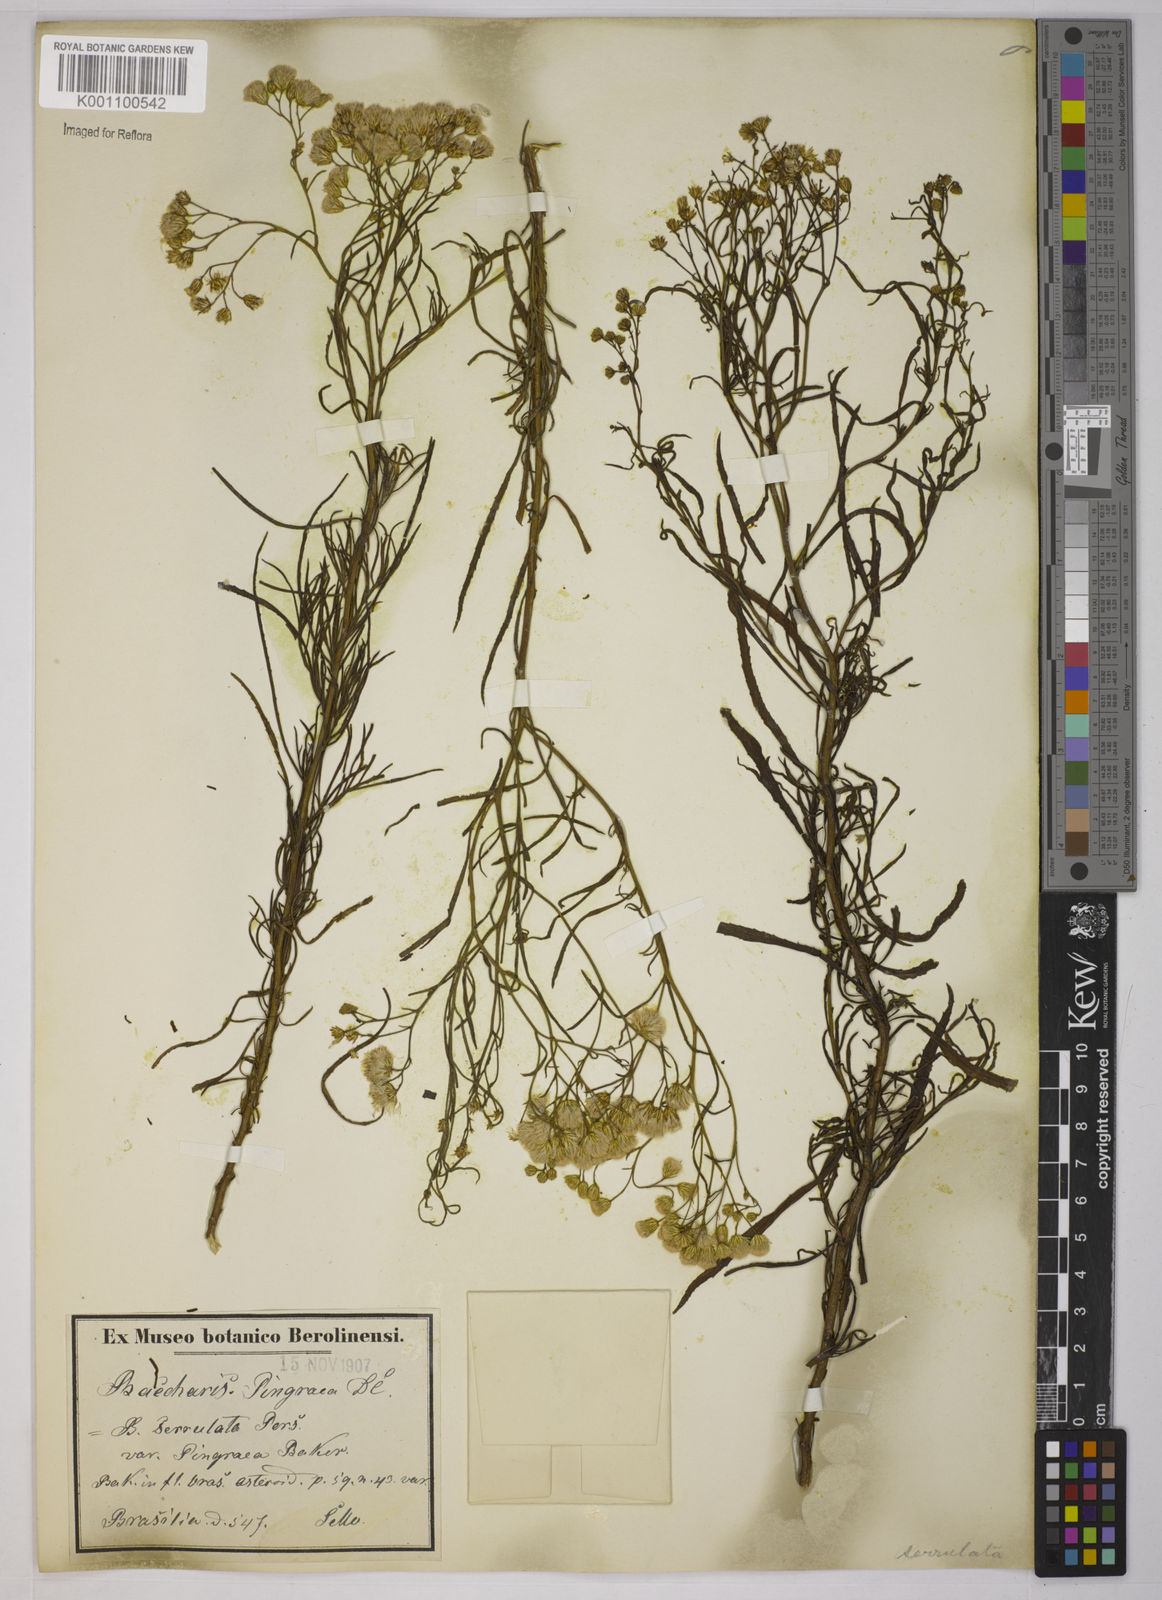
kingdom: Plantae
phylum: Tracheophyta
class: Magnoliopsida
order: Asterales
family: Asteraceae
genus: Baccharis
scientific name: Baccharis glutinosa
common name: Saltmarsh baccharis
